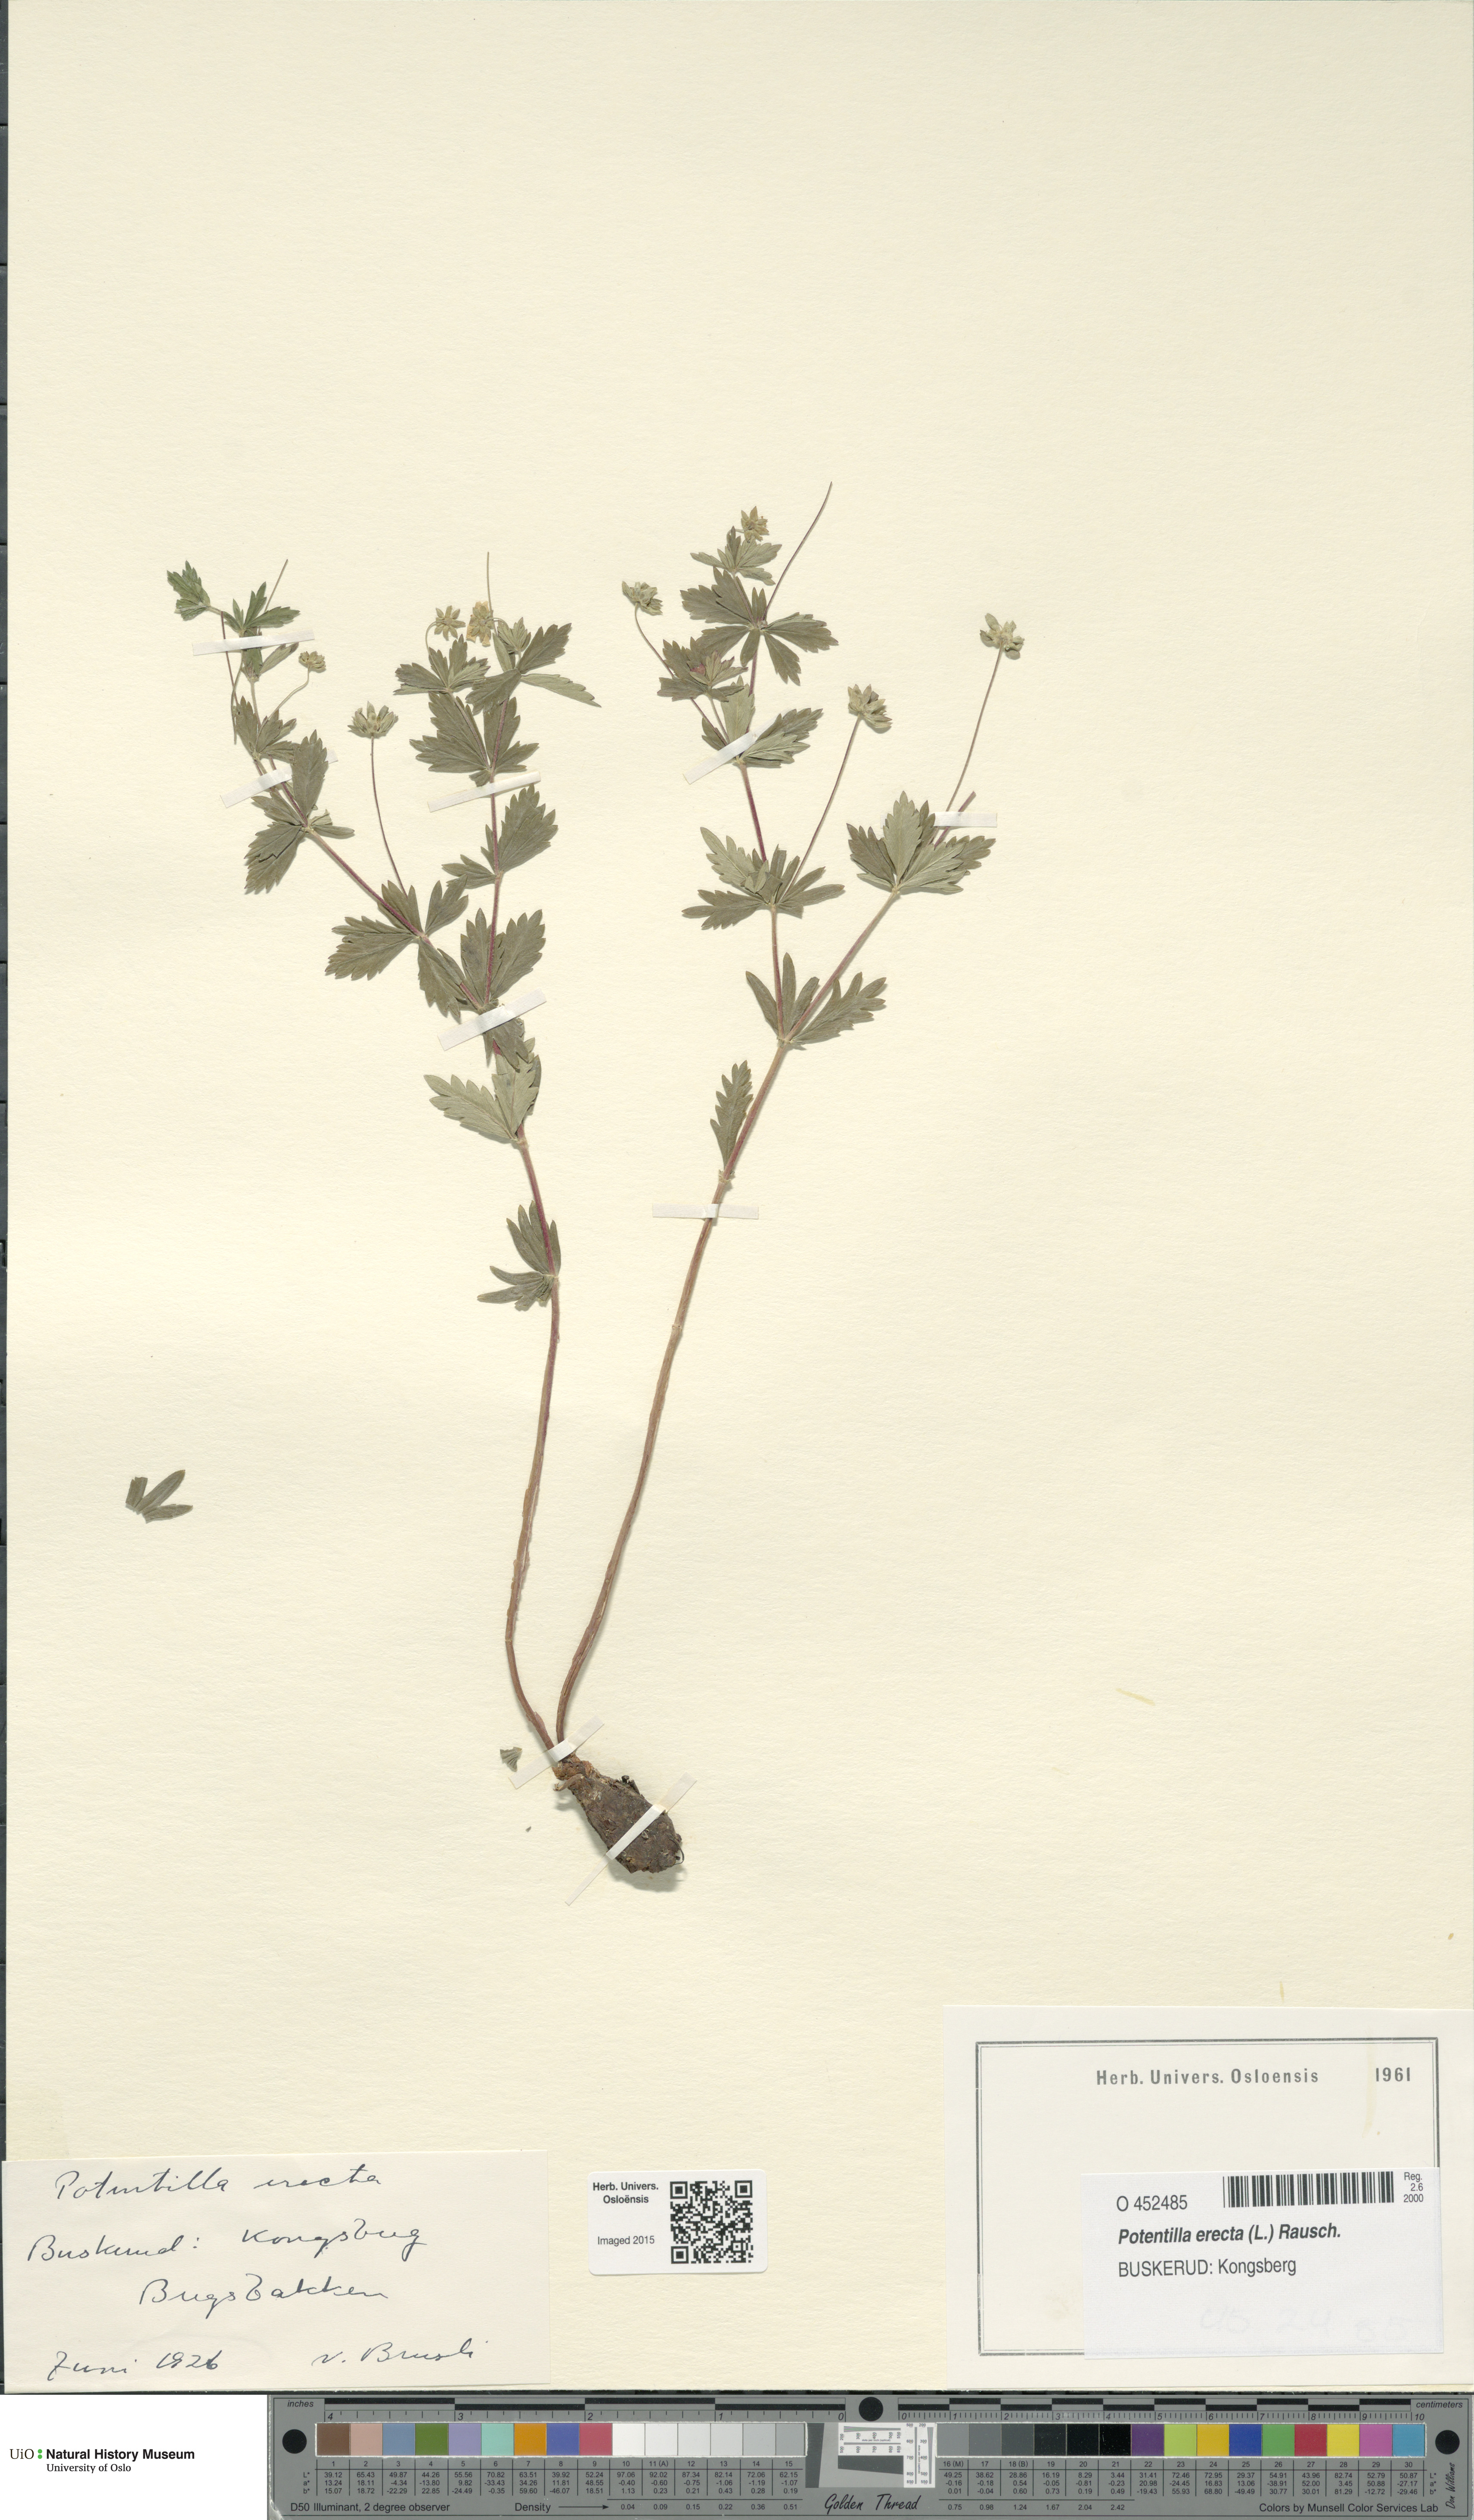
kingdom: Plantae
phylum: Tracheophyta
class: Magnoliopsida
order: Rosales
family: Rosaceae
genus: Potentilla
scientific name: Potentilla erecta
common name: Tormentil
